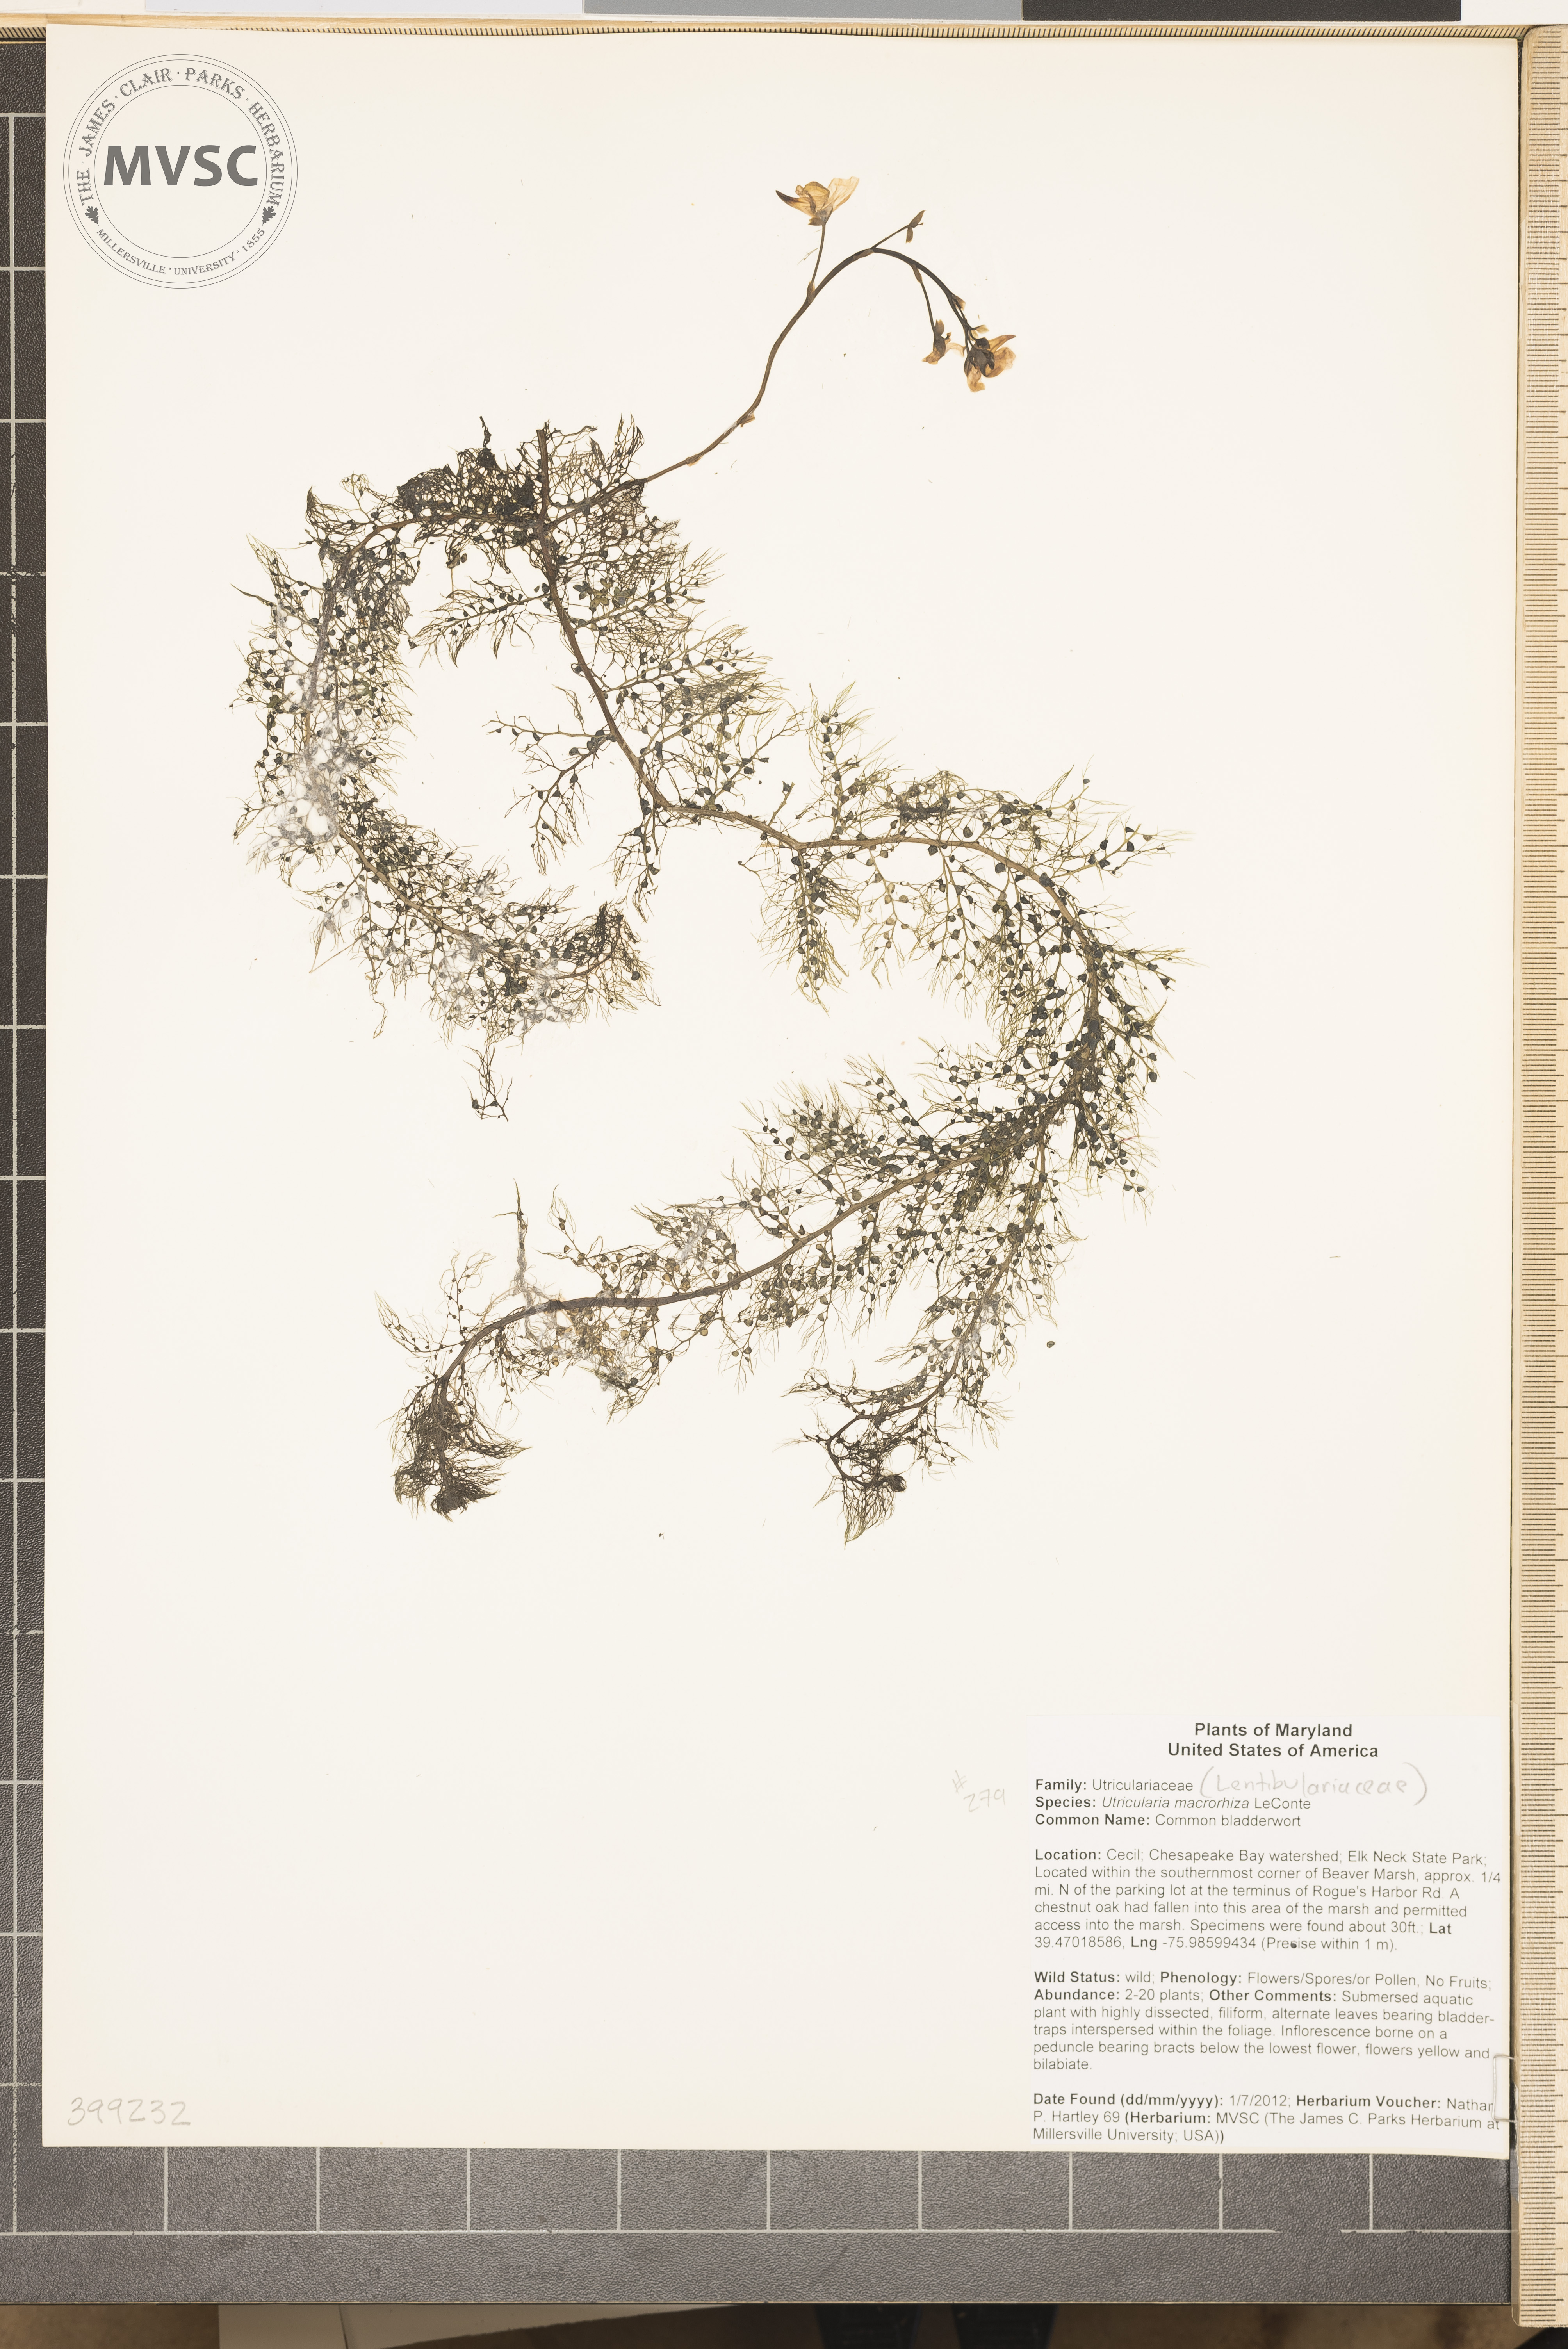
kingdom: Plantae
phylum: Tracheophyta
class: Magnoliopsida
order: Lamiales
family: Lentibulariaceae
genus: Utricularia
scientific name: Utricularia macrorhiza
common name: Common bladderwort
